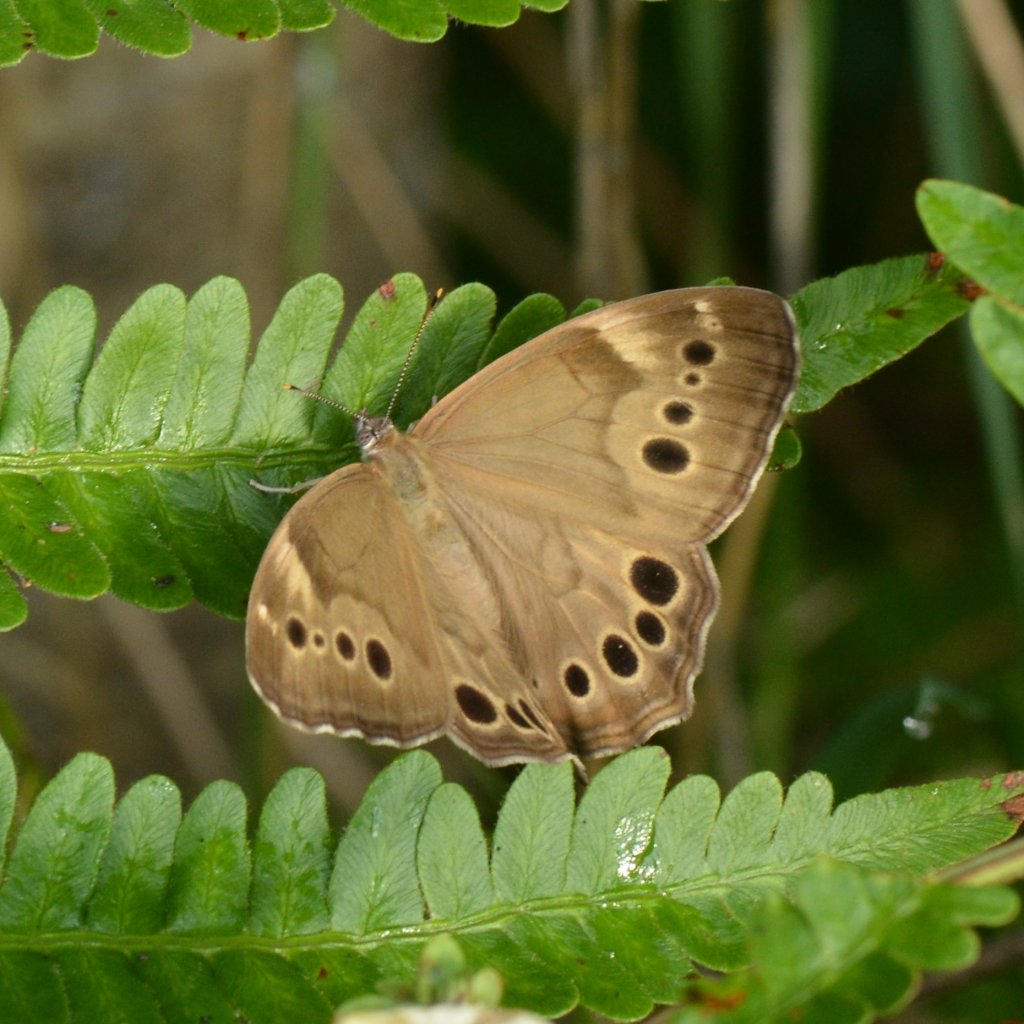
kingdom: Animalia
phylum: Arthropoda
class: Insecta
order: Lepidoptera
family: Nymphalidae
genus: Lethe
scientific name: Lethe anthedon
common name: Northern Pearly-Eye
